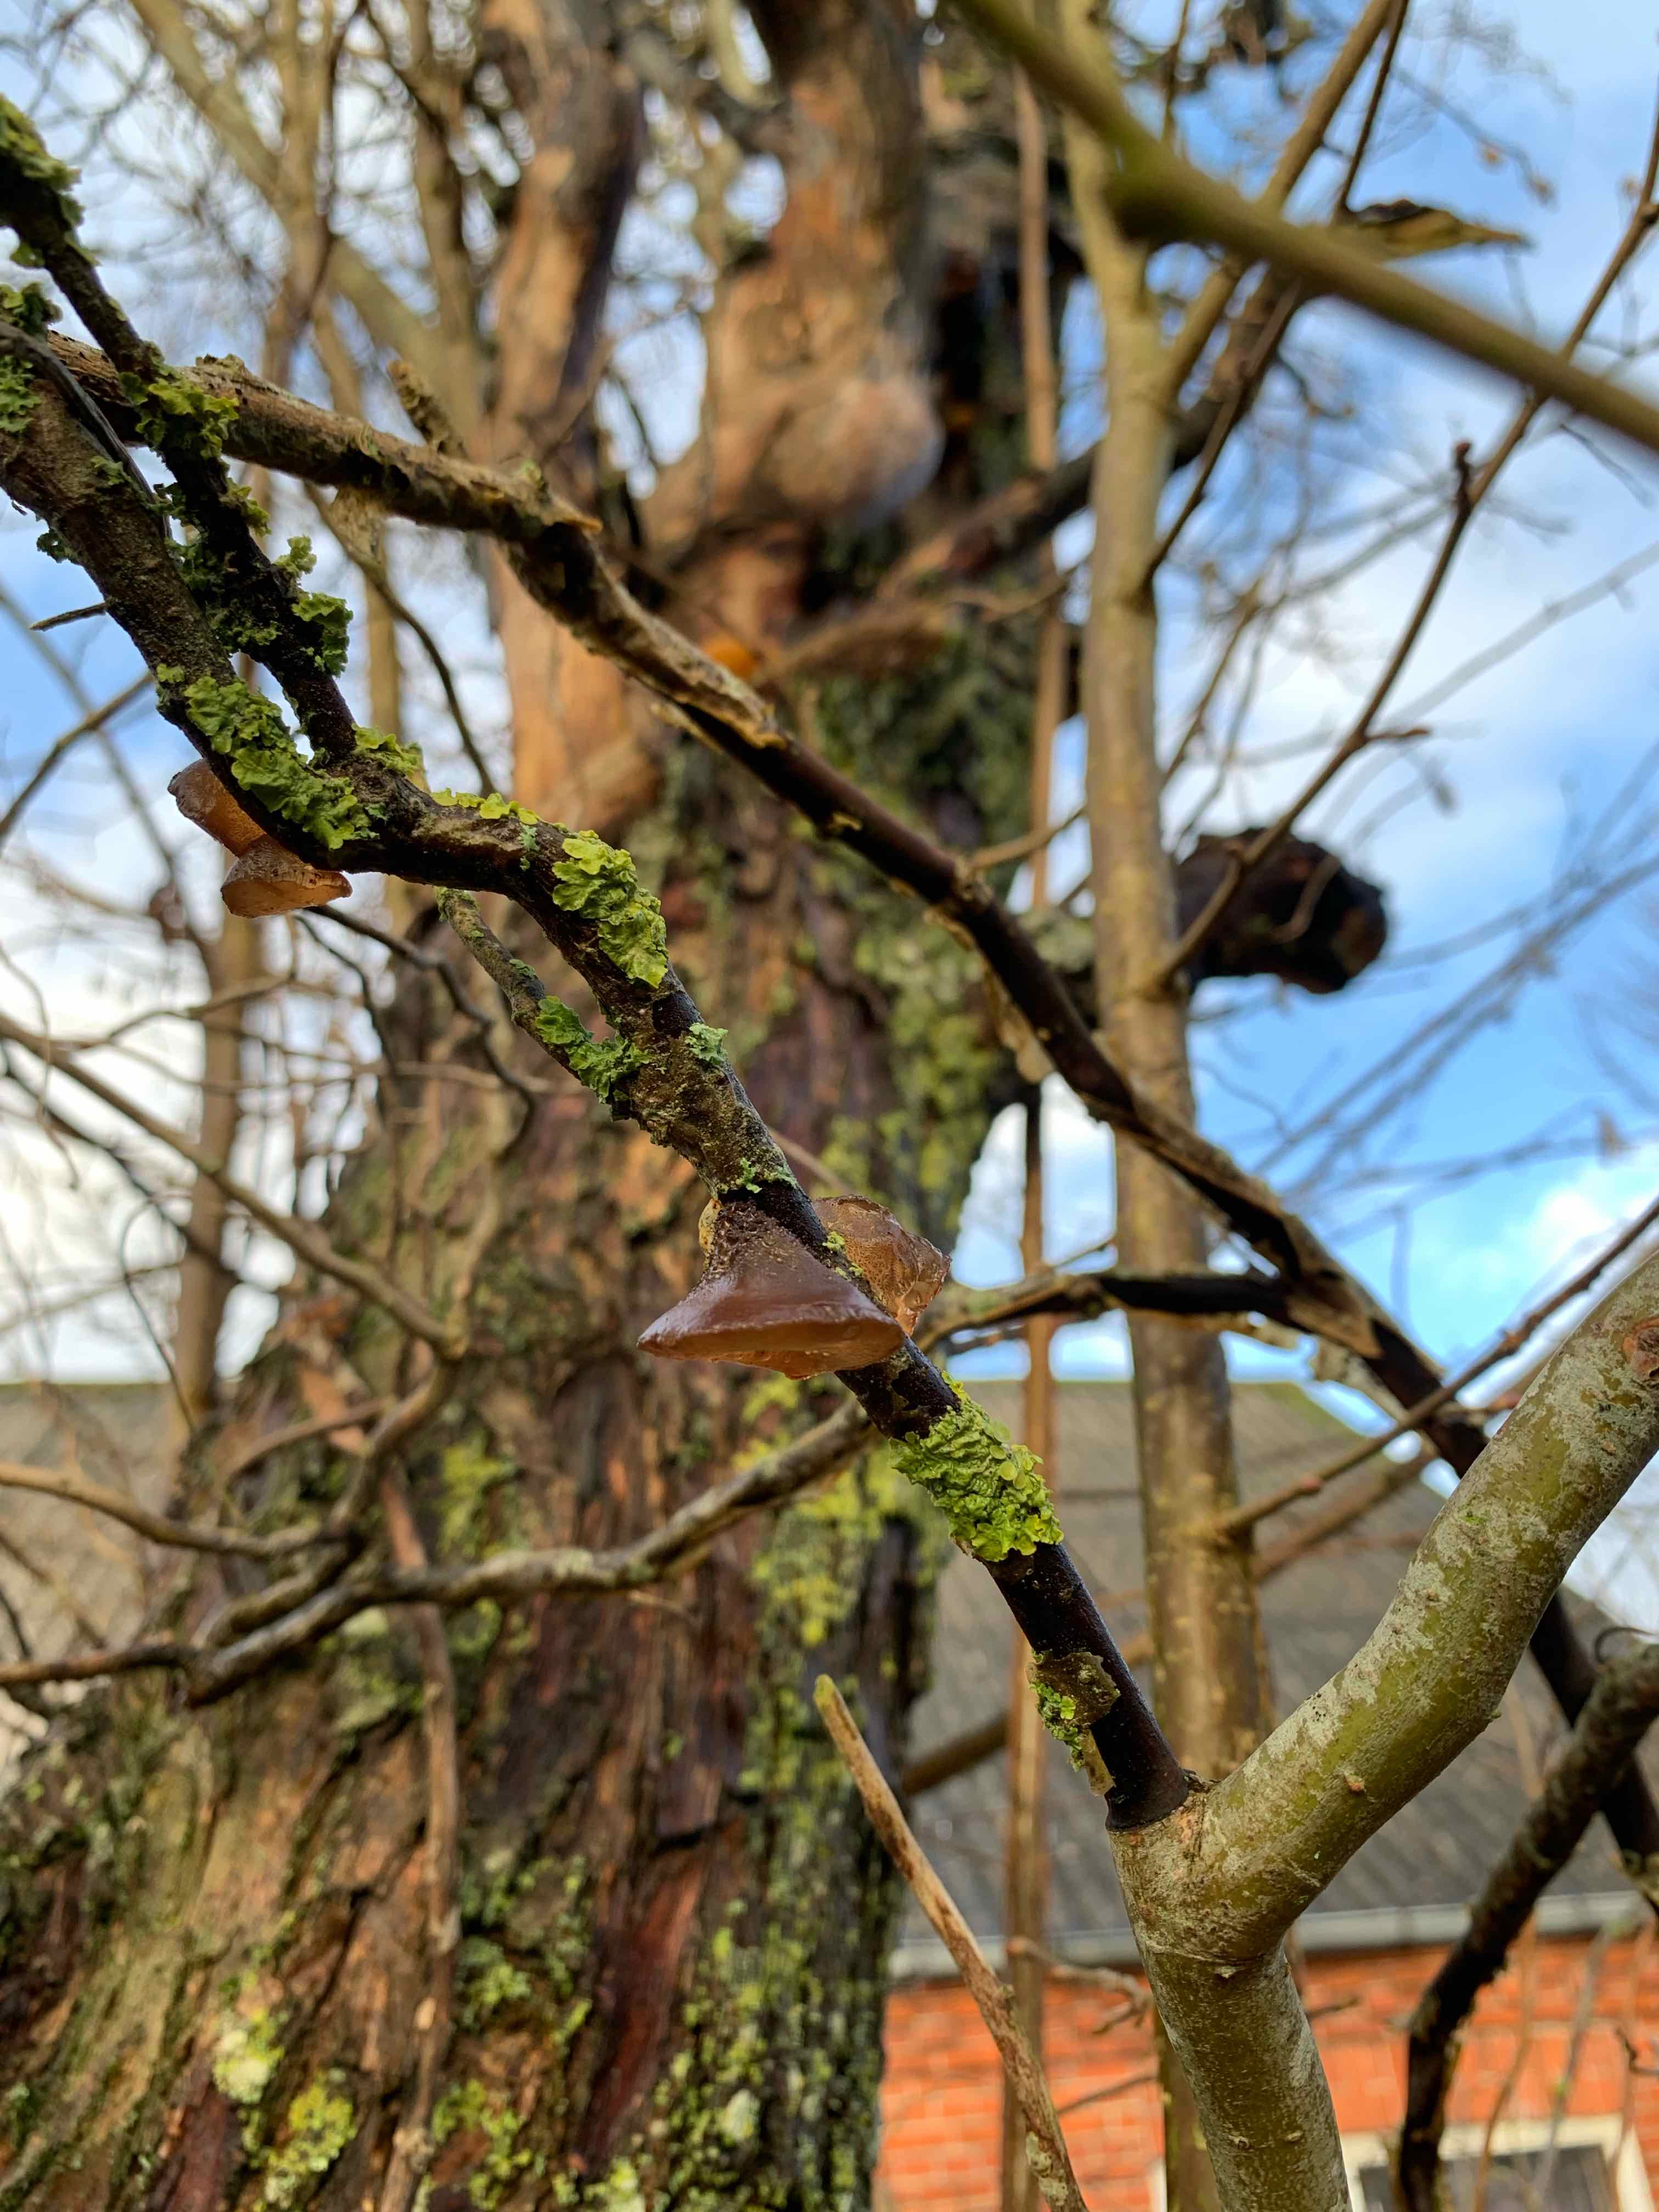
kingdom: Fungi
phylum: Basidiomycota
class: Agaricomycetes
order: Auriculariales
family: Auriculariaceae
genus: Exidia
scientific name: Exidia recisa
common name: pile-bævretop
